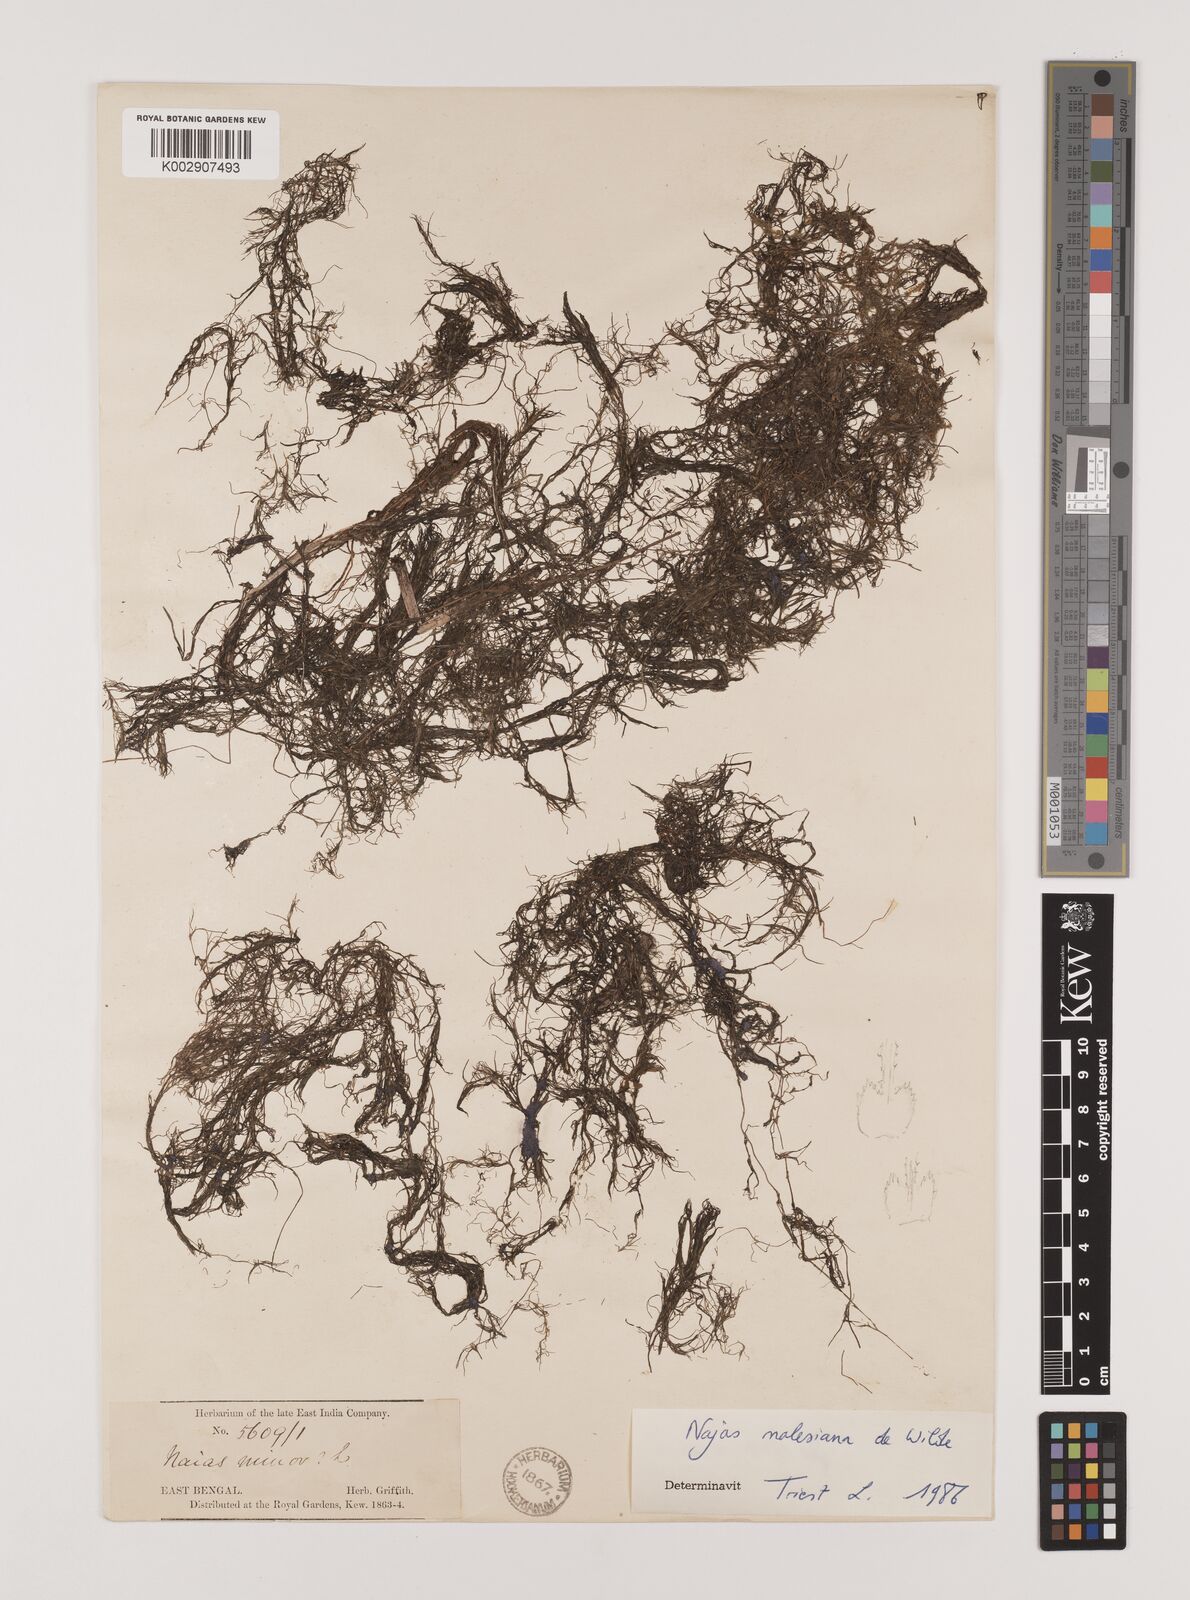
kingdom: Plantae
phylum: Tracheophyta
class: Liliopsida
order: Alismatales
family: Hydrocharitaceae
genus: Najas
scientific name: Najas malesiana
